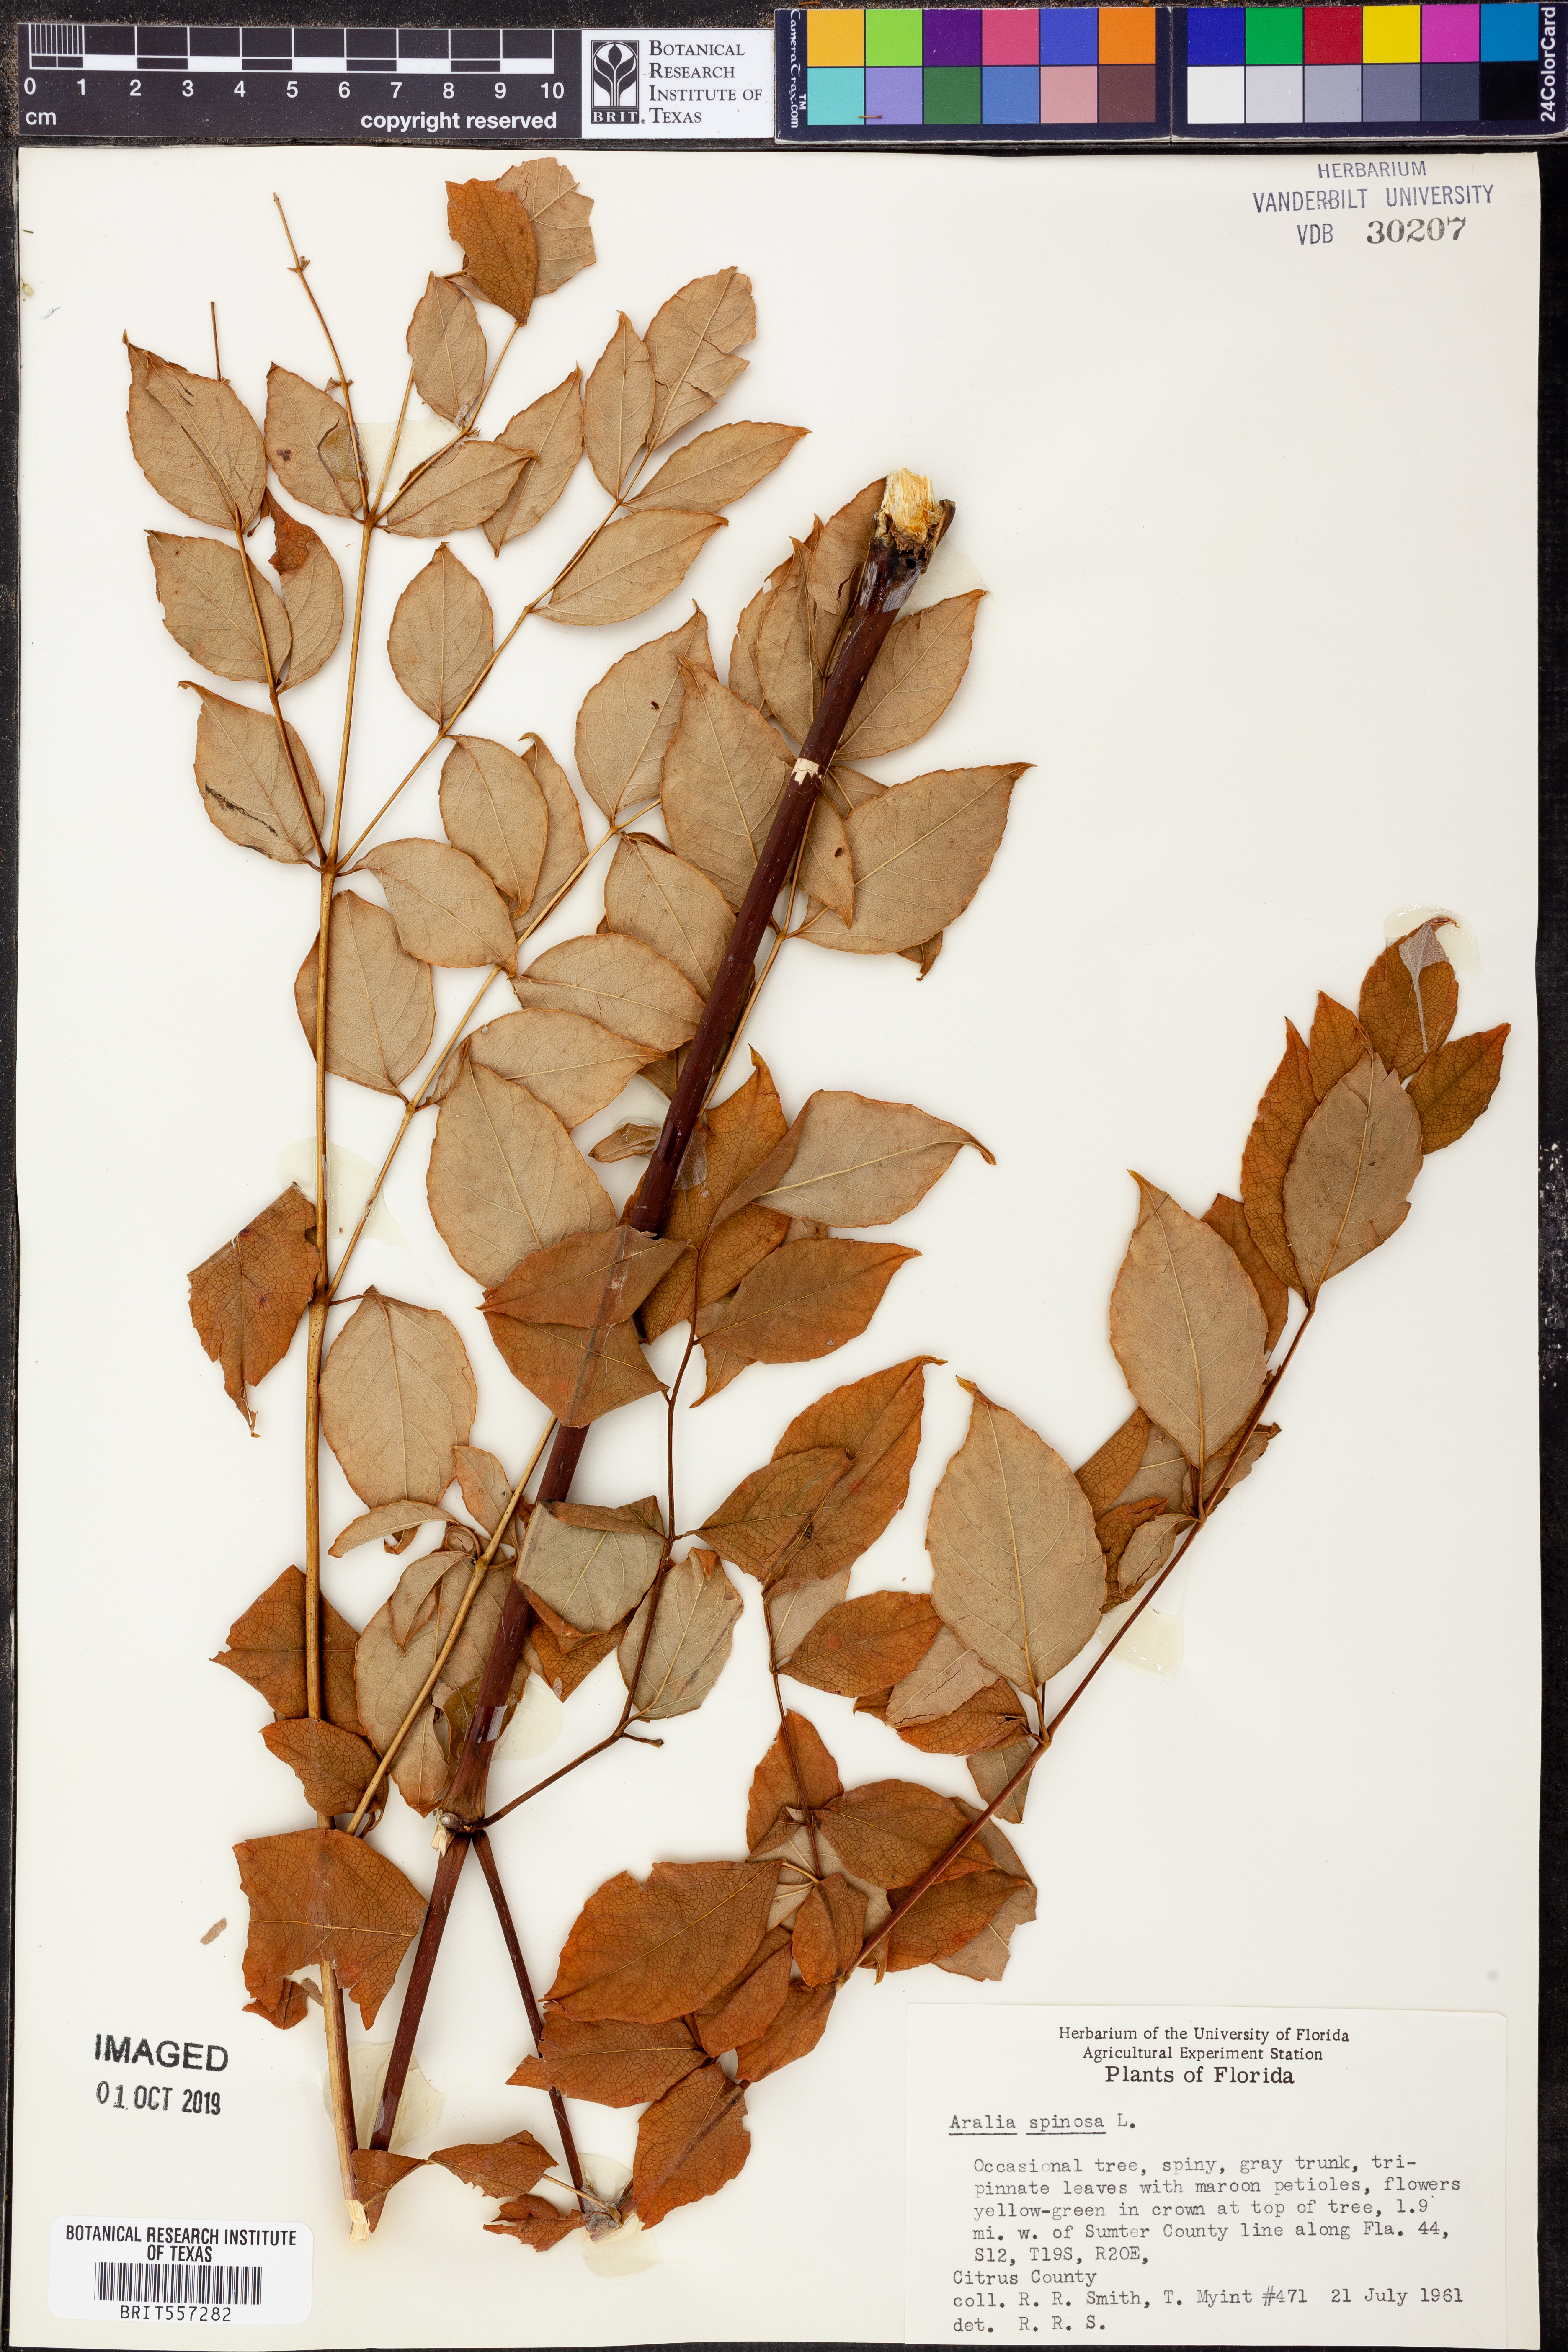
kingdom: Plantae
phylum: Tracheophyta
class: Magnoliopsida
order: Apiales
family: Araliaceae
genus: Aralia
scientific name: Aralia spinosa
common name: Hercules'-club
